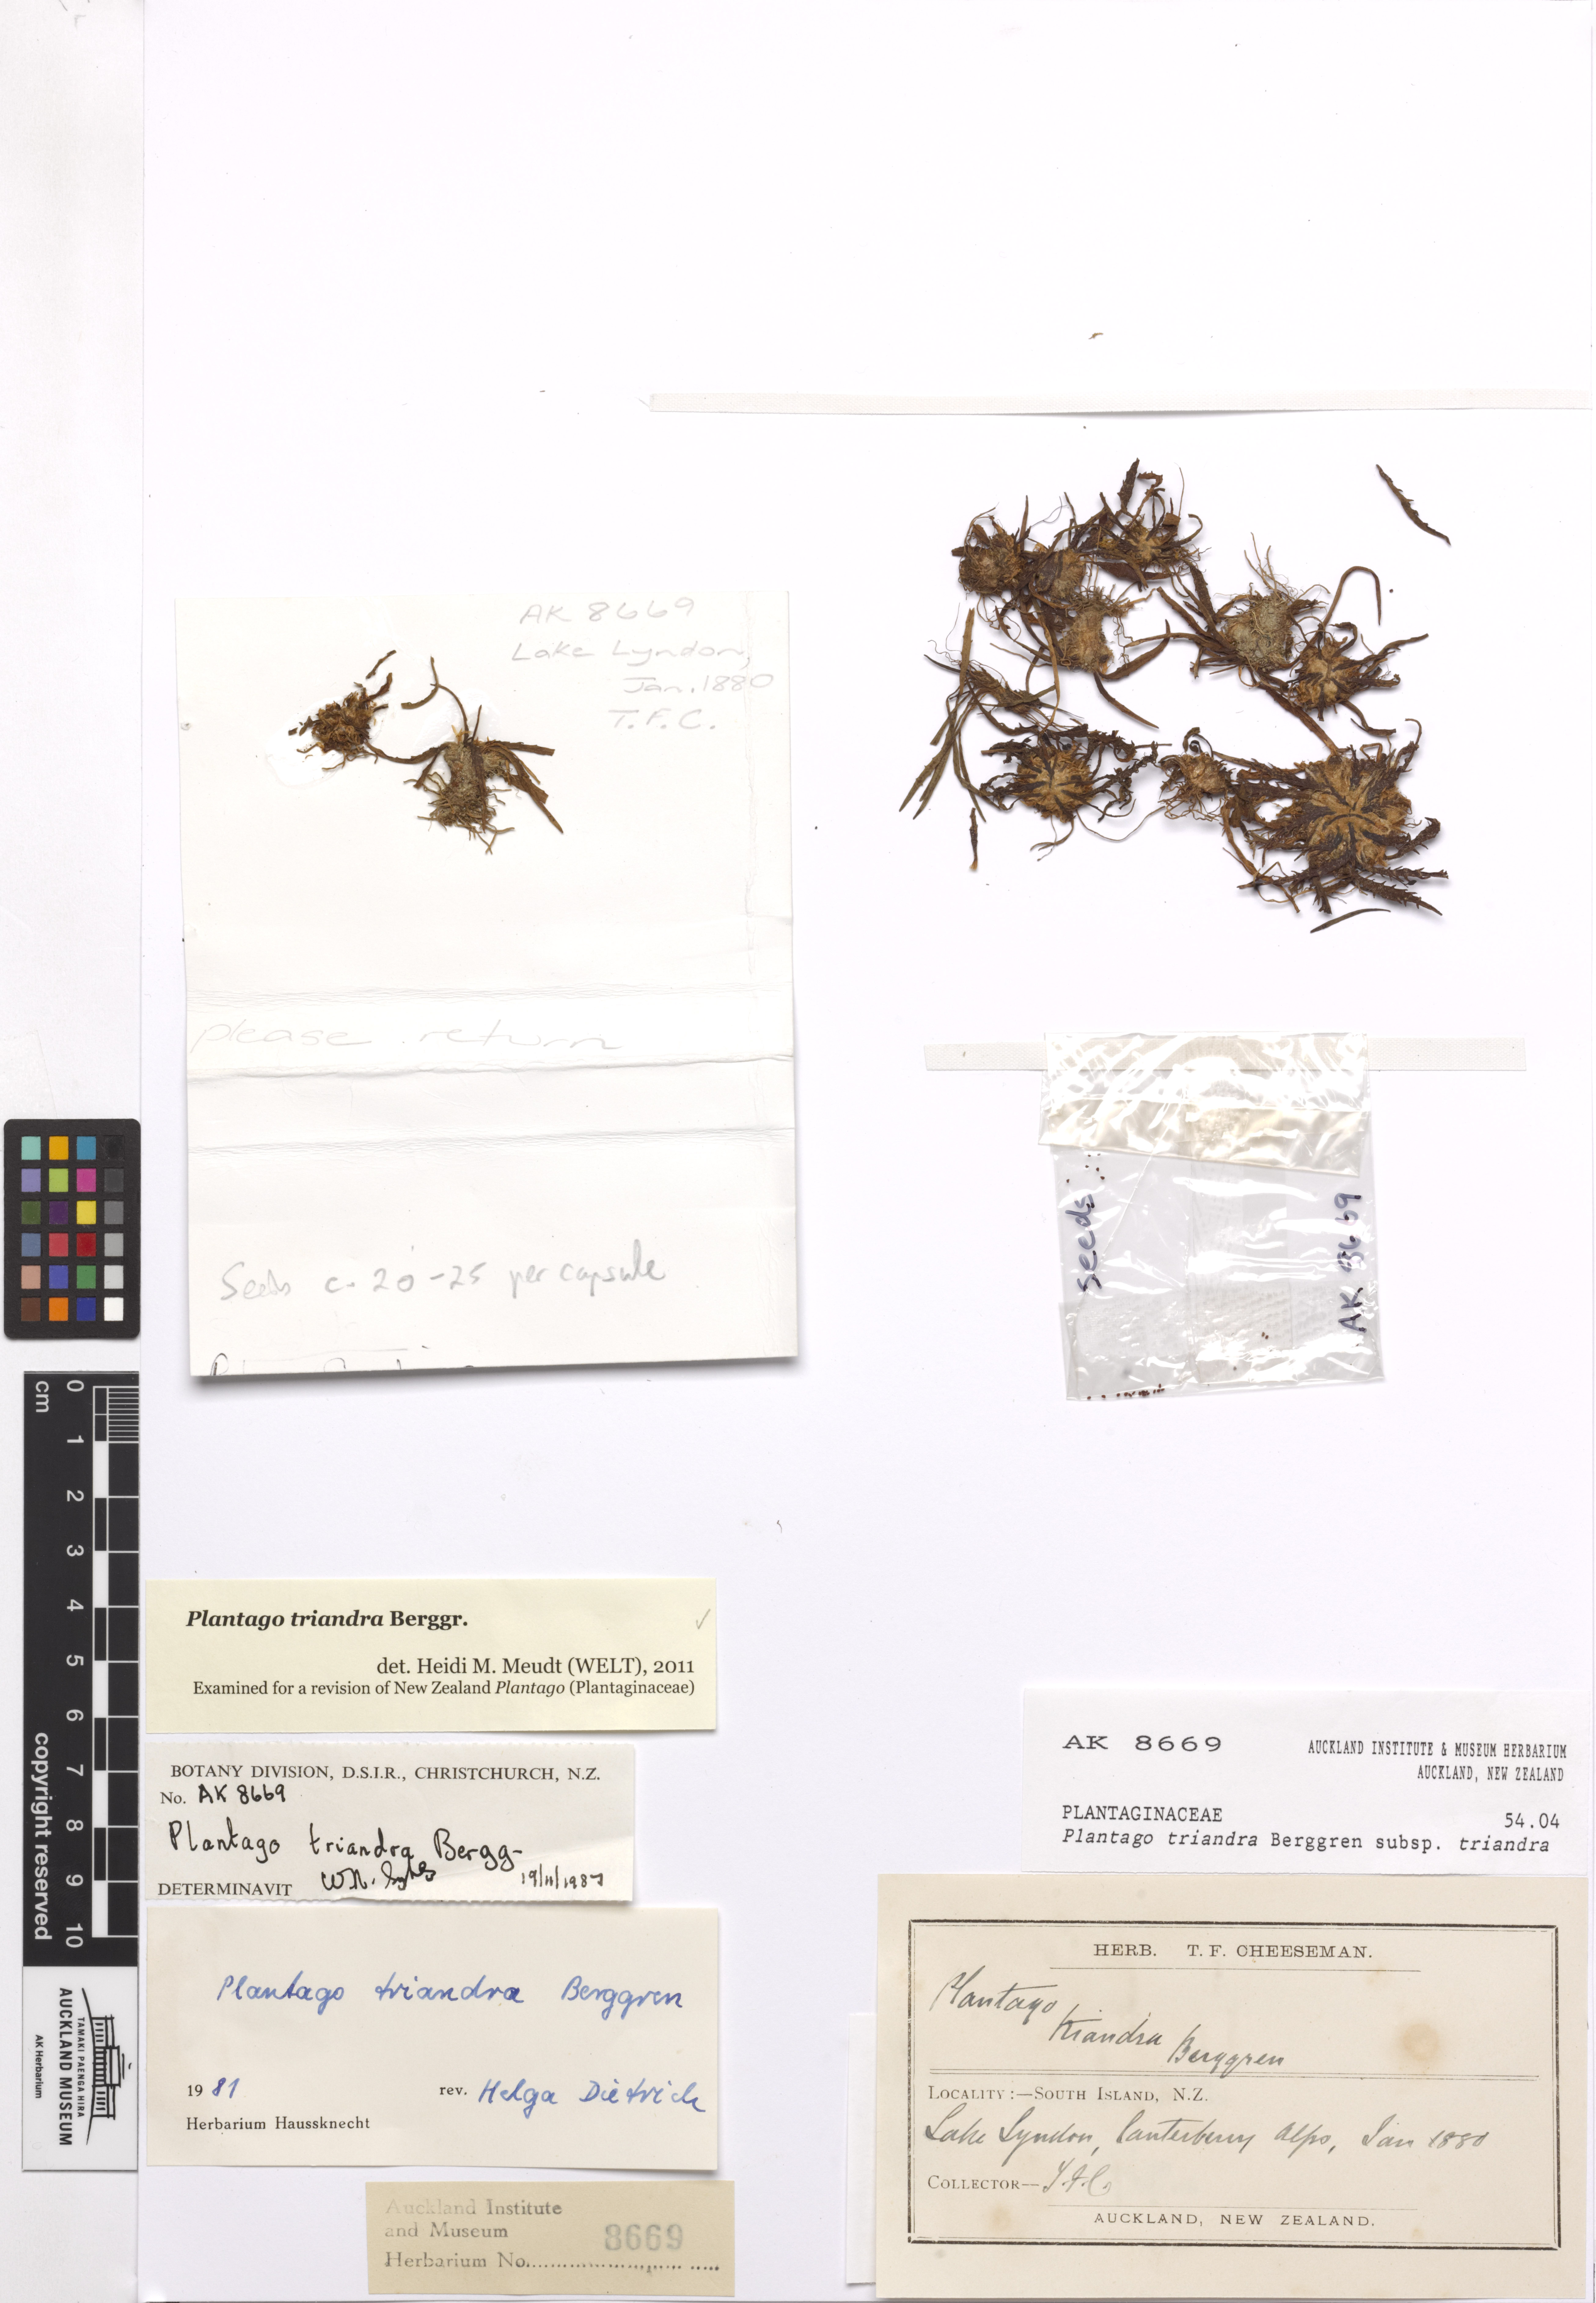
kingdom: Plantae
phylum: Tracheophyta
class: Magnoliopsida
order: Lamiales
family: Plantaginaceae
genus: Plantago
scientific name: Plantago triandra
